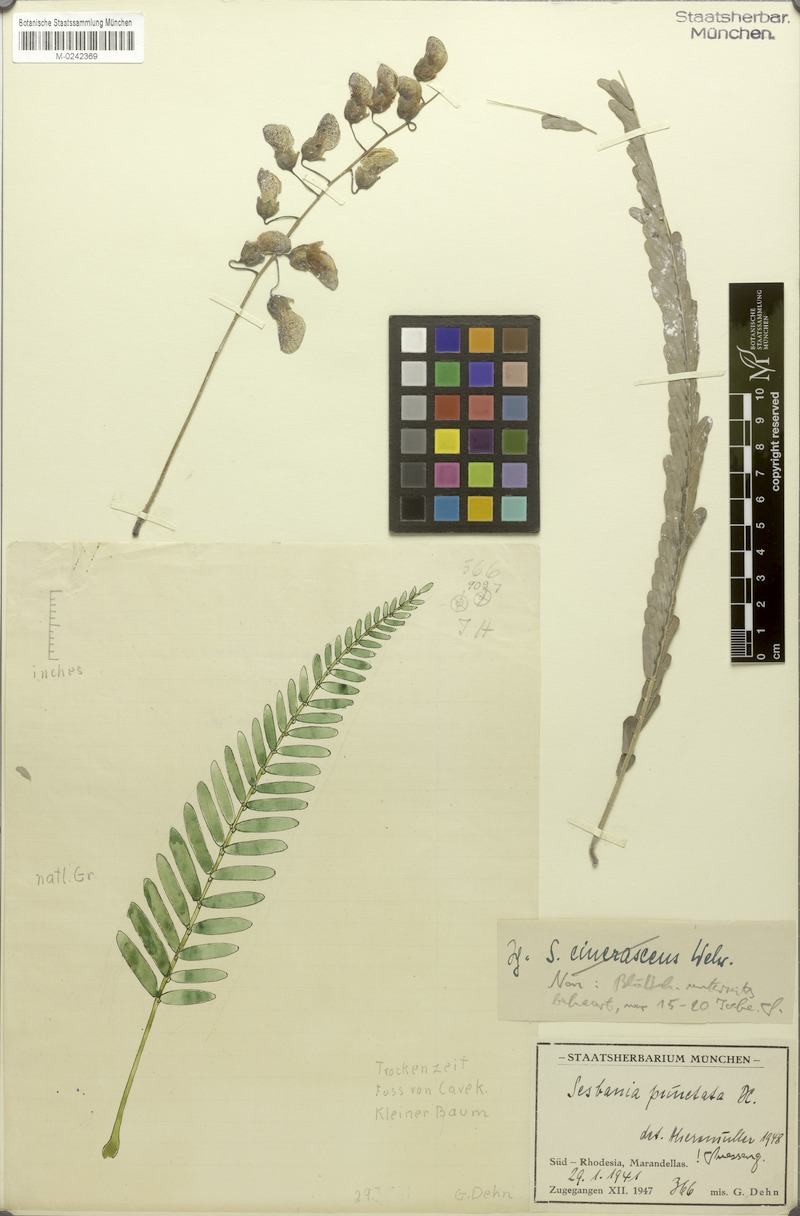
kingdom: Plantae
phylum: Tracheophyta
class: Magnoliopsida
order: Fabales
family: Fabaceae
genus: Sesbania
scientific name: Sesbania macrantha
